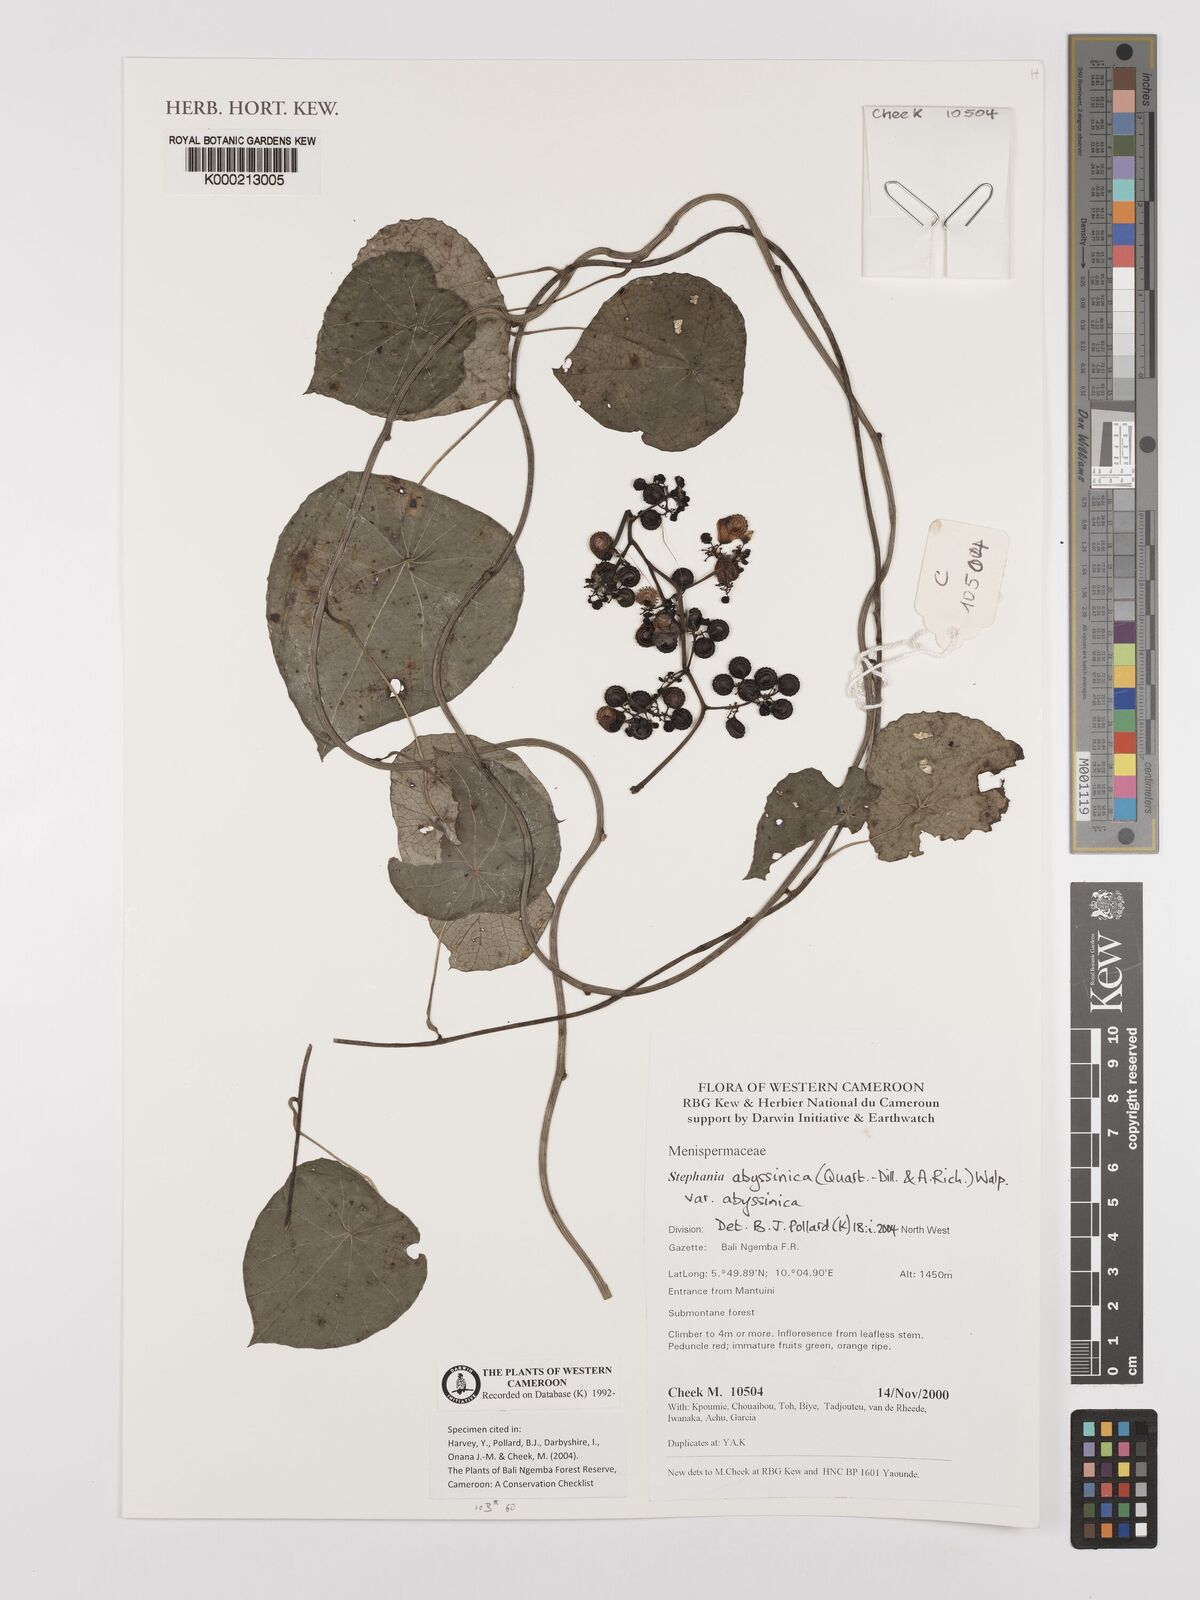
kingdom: Plantae
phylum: Tracheophyta
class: Magnoliopsida
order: Ranunculales
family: Menispermaceae
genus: Stephania
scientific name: Stephania
